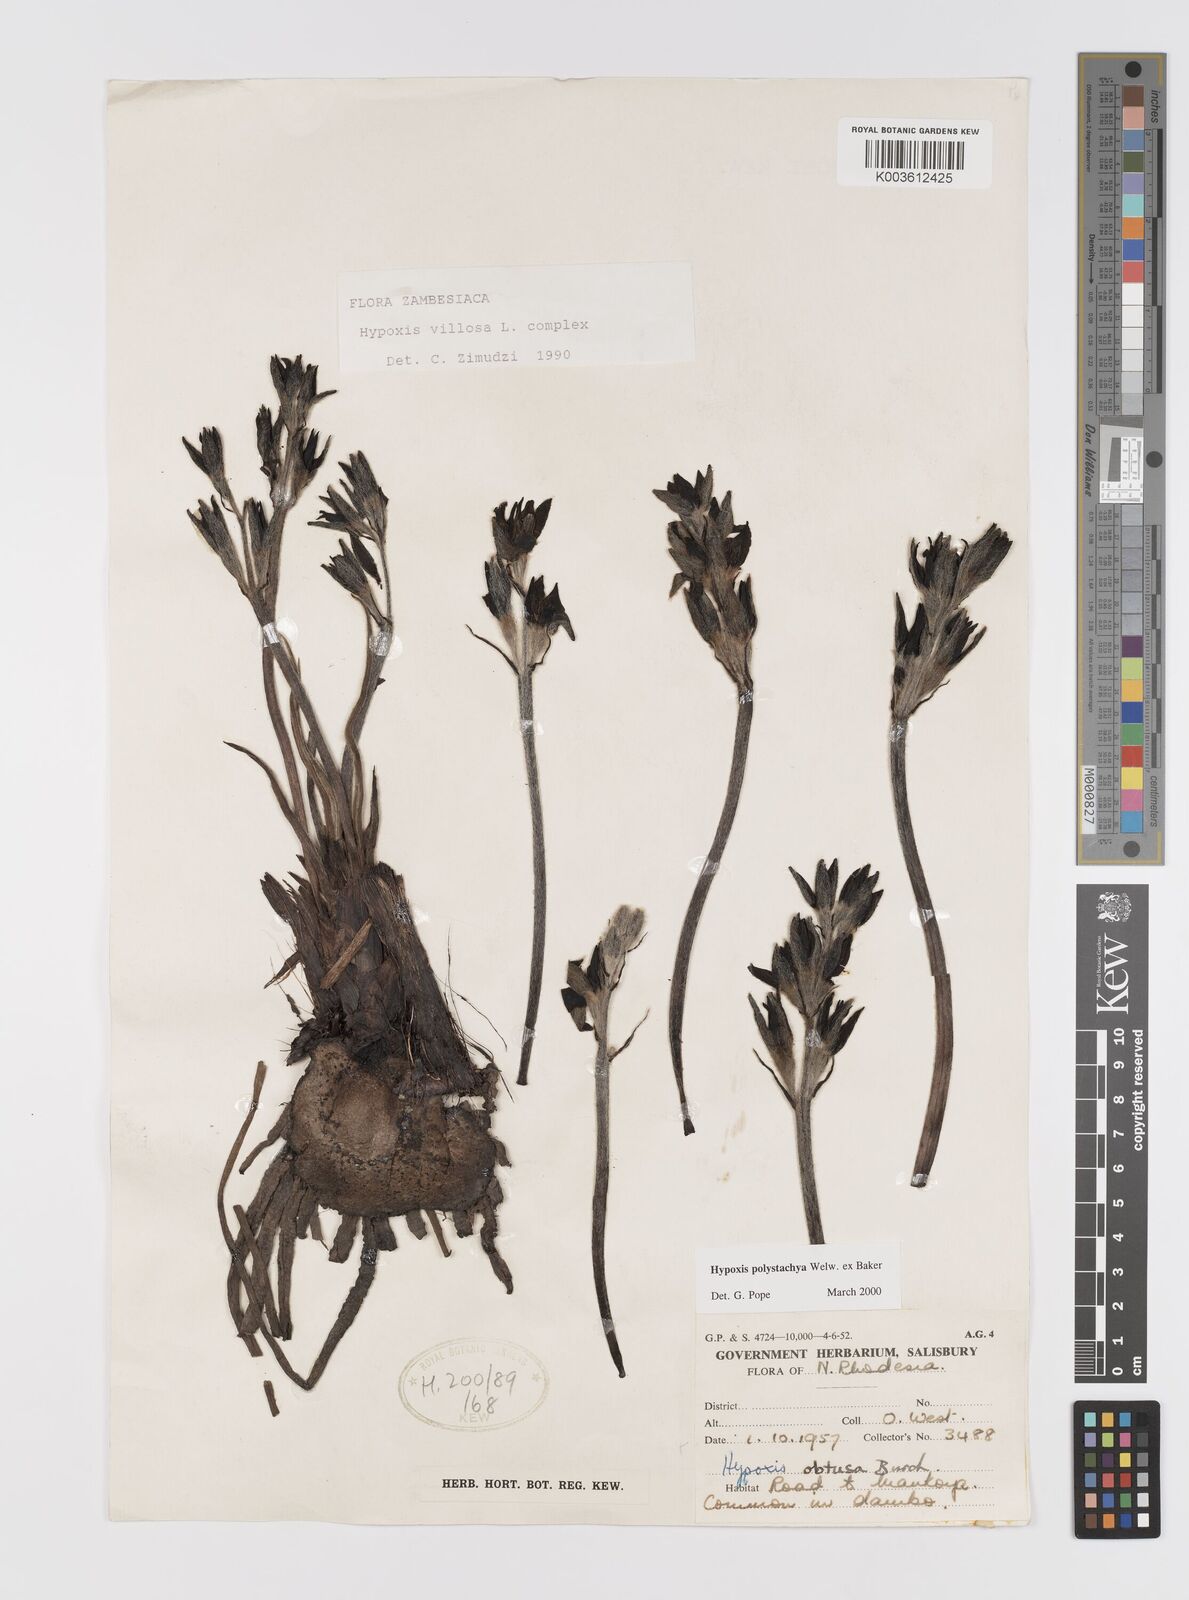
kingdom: Plantae
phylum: Tracheophyta
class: Liliopsida
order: Asparagales
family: Hypoxidaceae
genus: Hypoxis
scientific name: Hypoxis polystachya
